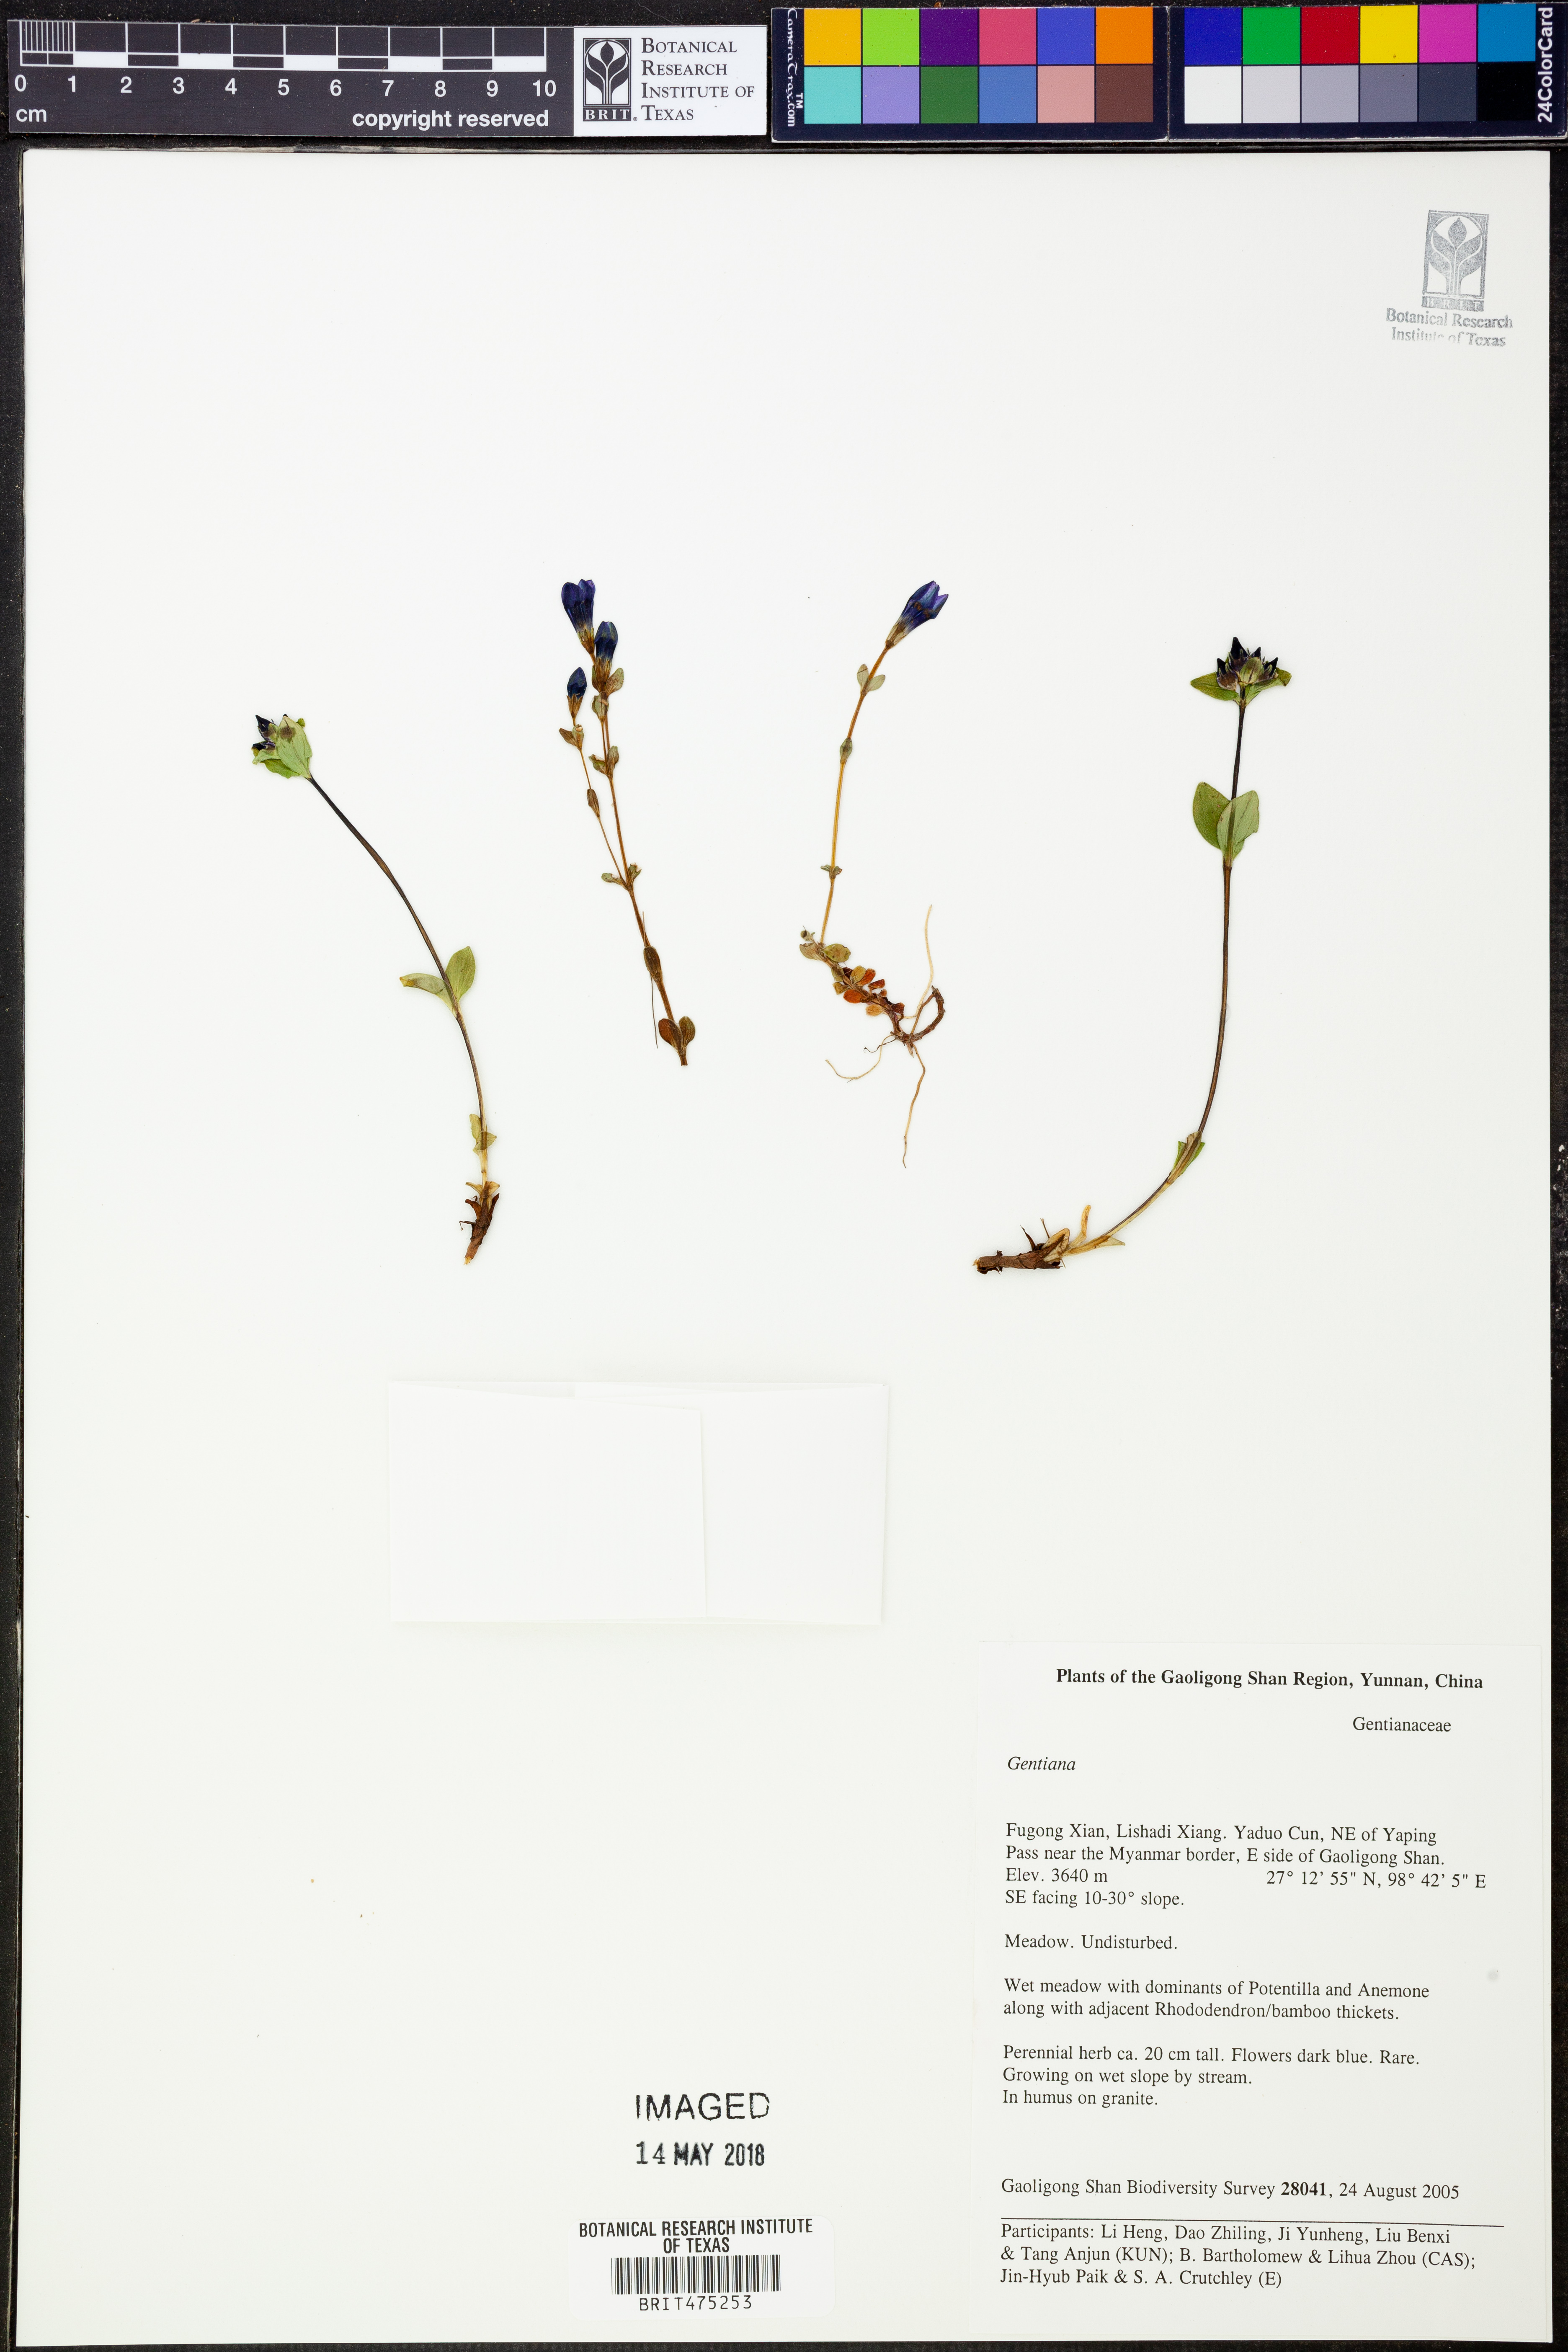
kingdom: Plantae
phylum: Tracheophyta
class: Magnoliopsida
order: Gentianales
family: Gentianaceae
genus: Gentiana
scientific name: Gentiana
